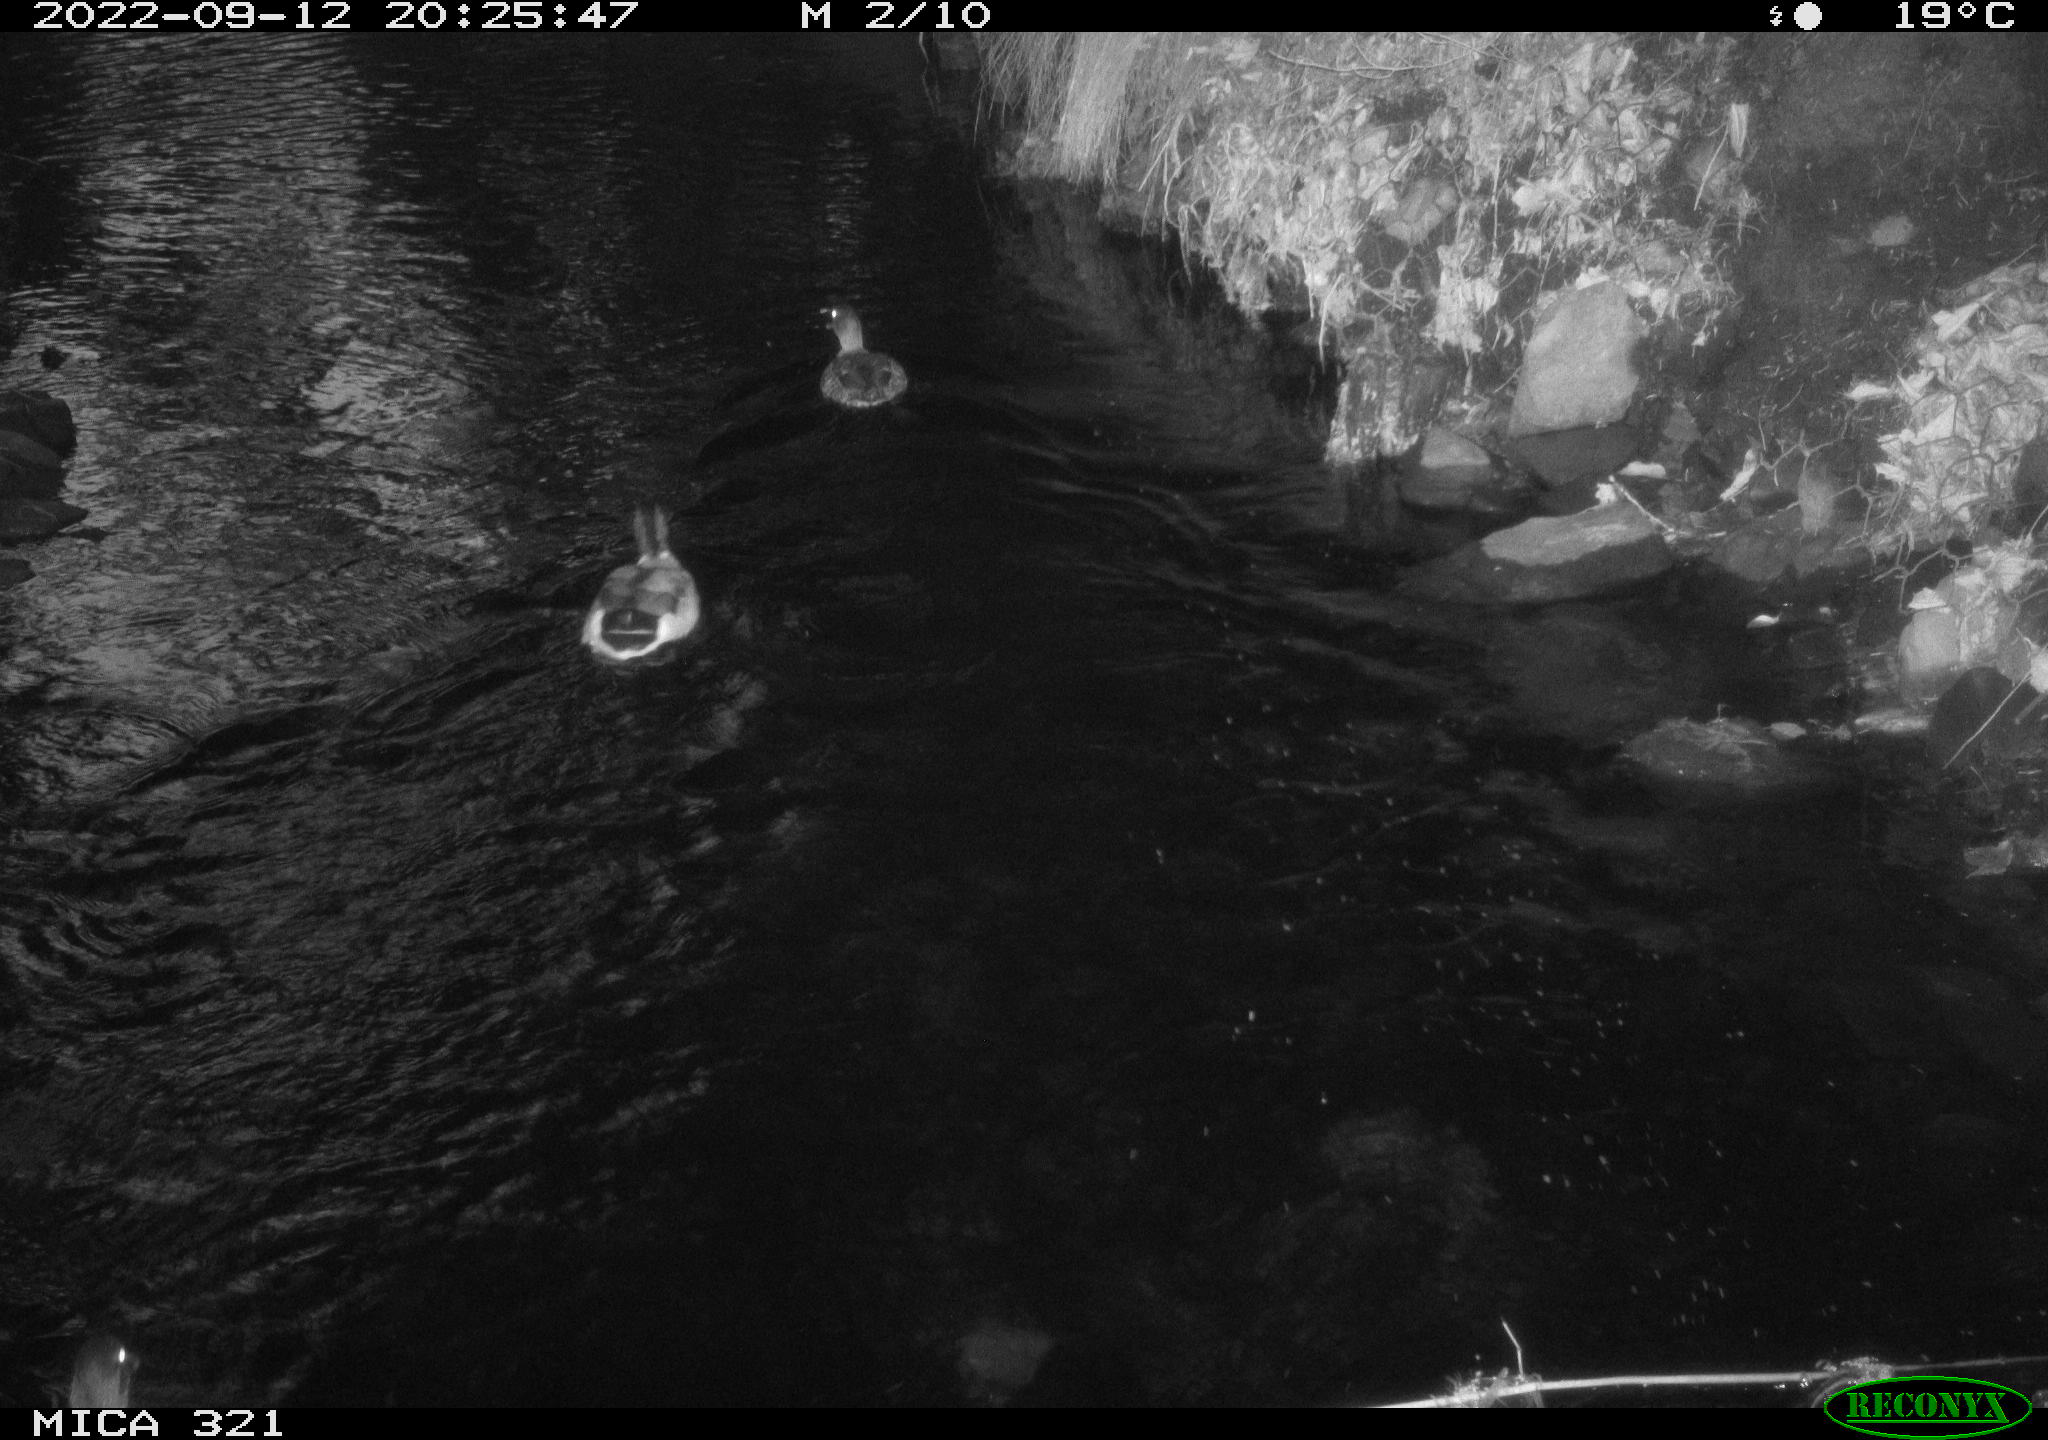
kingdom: Animalia
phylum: Chordata
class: Aves
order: Pelecaniformes
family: Ardeidae
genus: Ardea
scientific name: Ardea cinerea
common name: Grey heron
